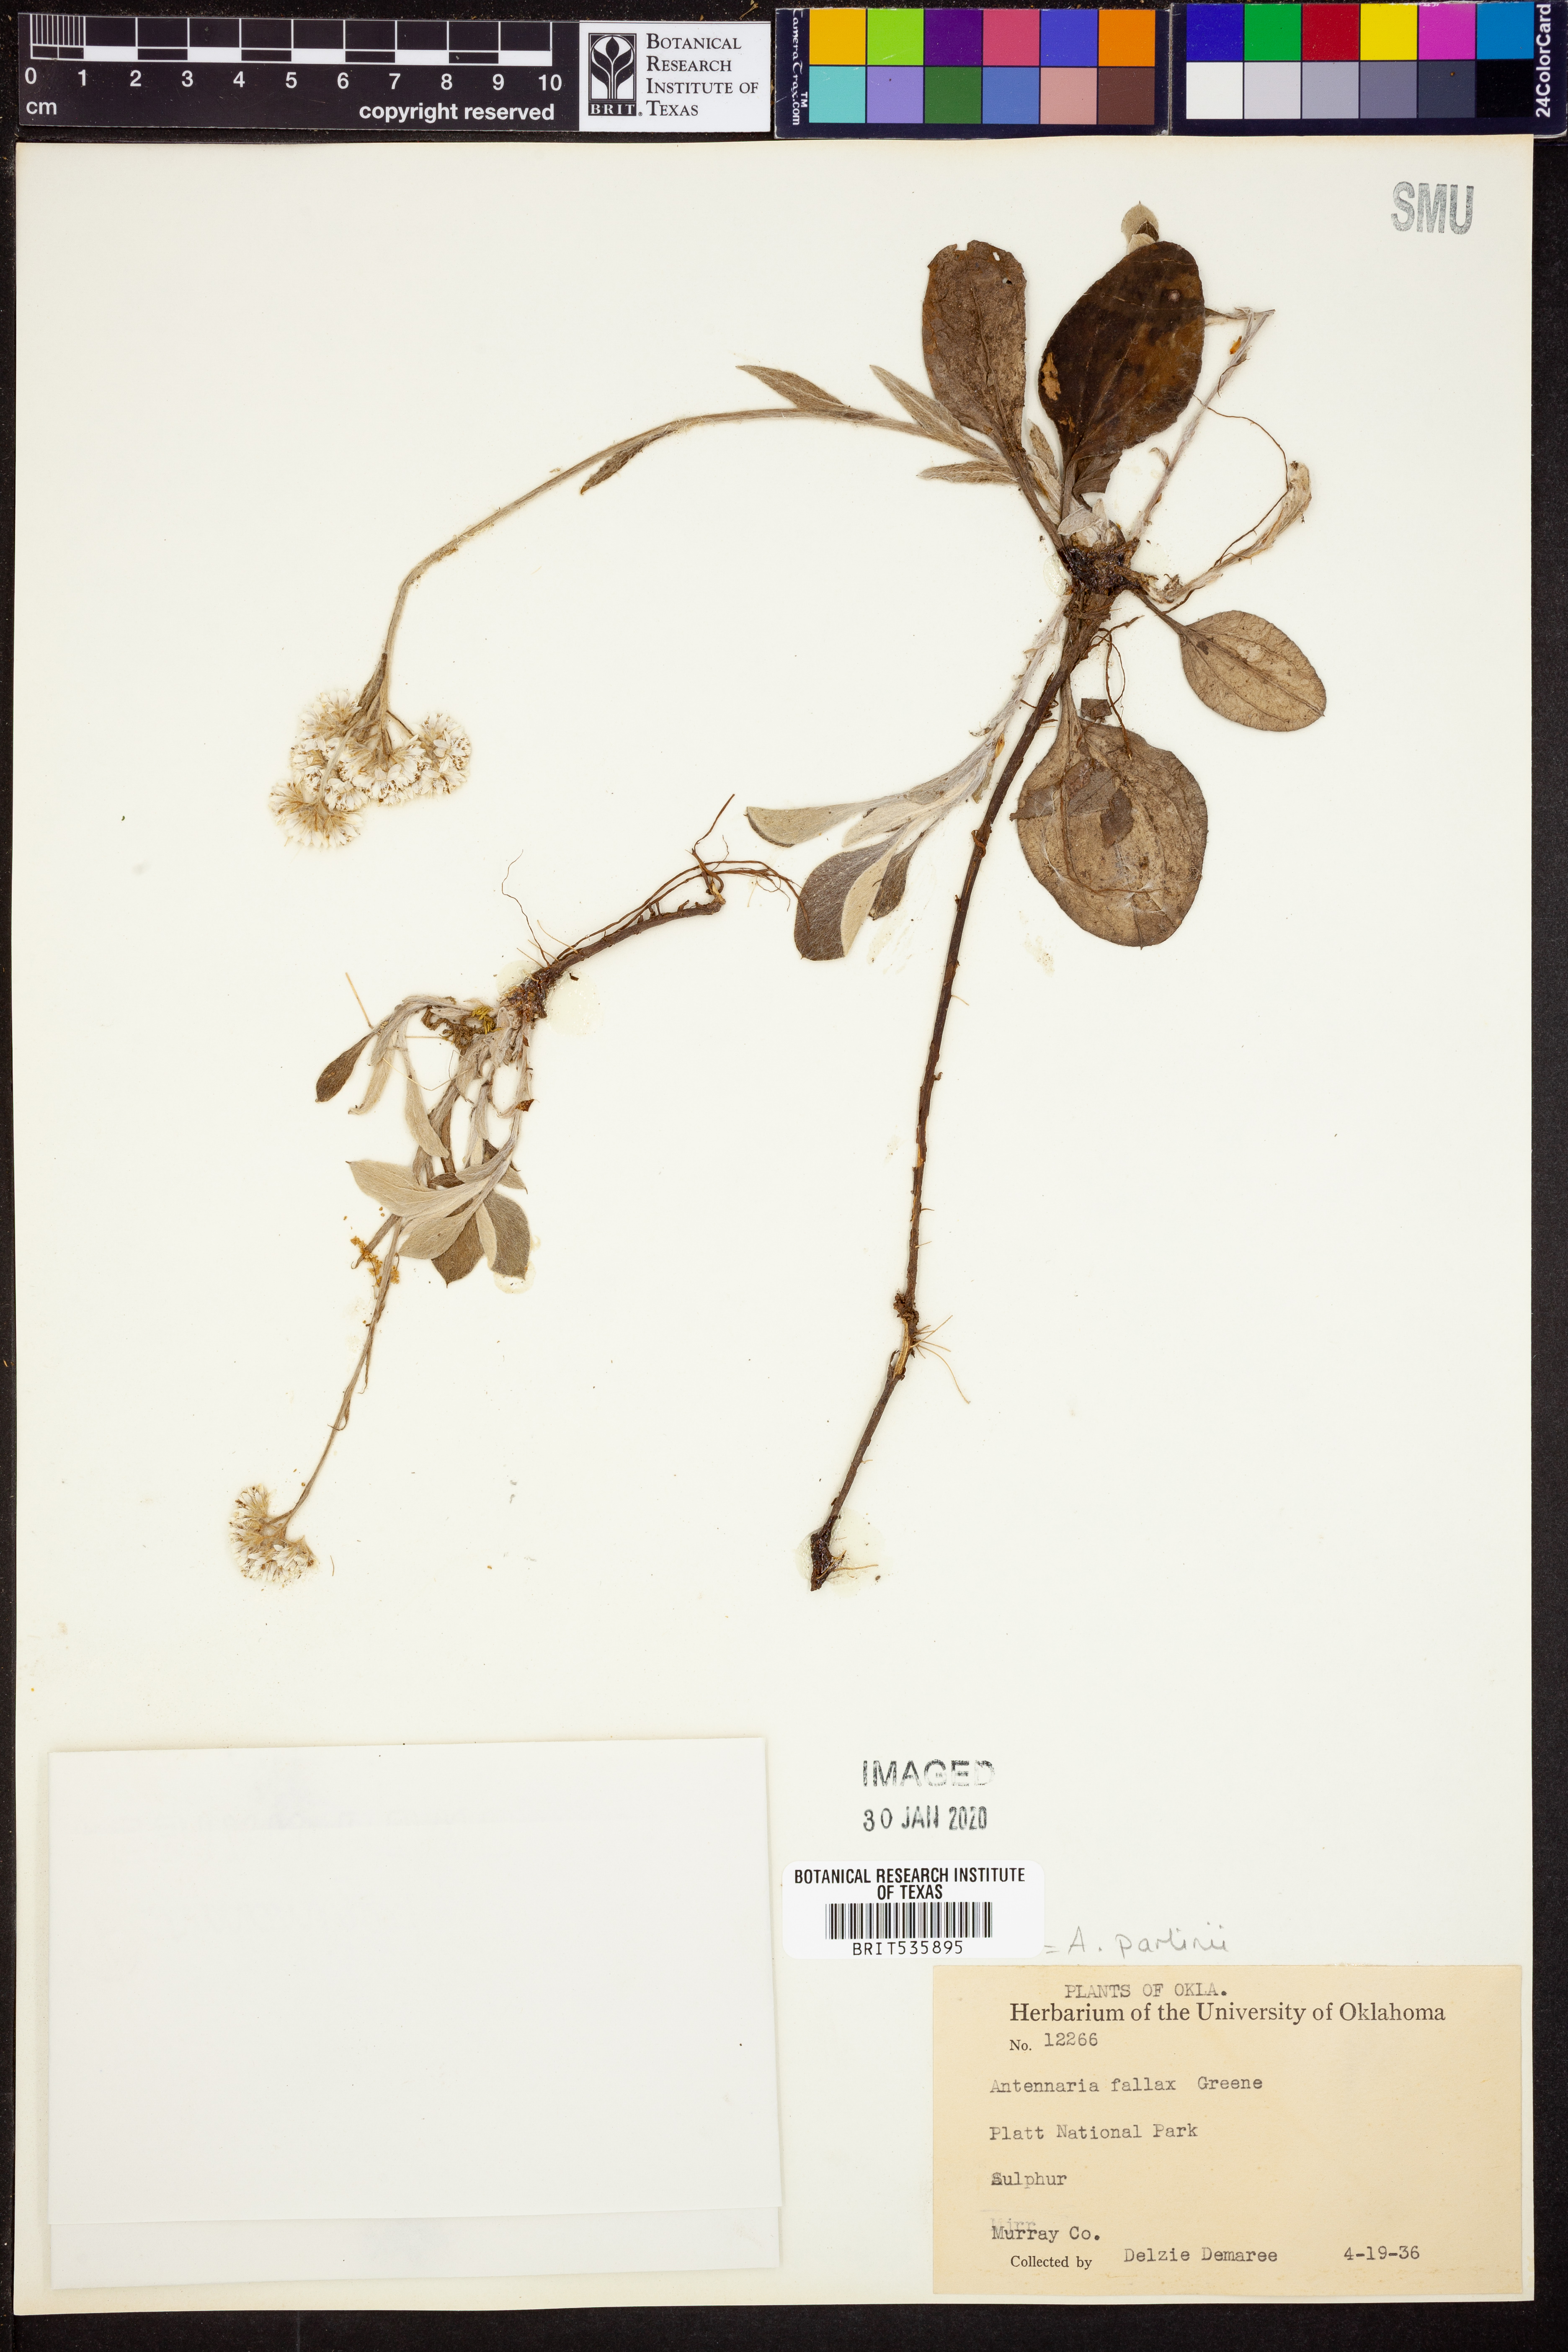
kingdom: Plantae
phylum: Tracheophyta
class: Magnoliopsida
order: Asterales
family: Asteraceae
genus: Antennaria
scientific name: Antennaria parlinii
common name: Parlin's pussytoes
